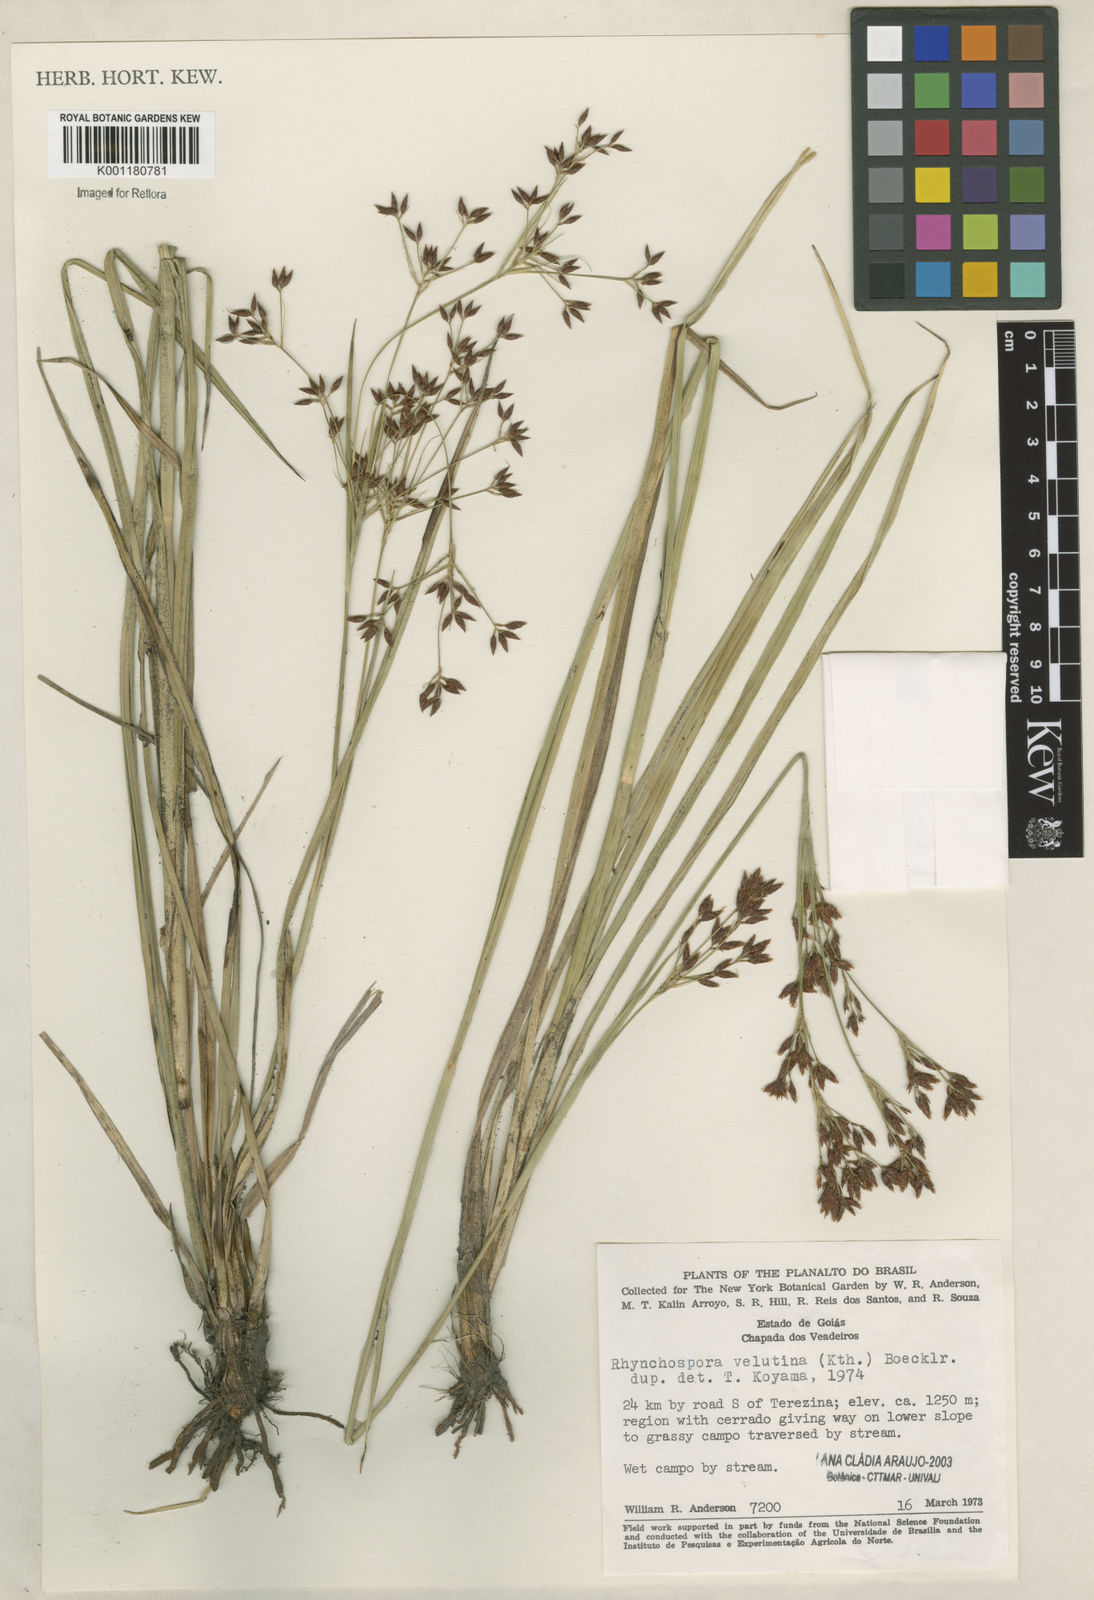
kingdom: Plantae
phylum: Tracheophyta
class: Liliopsida
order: Poales
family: Cyperaceae
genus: Rhynchospora
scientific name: Rhynchospora velutina
